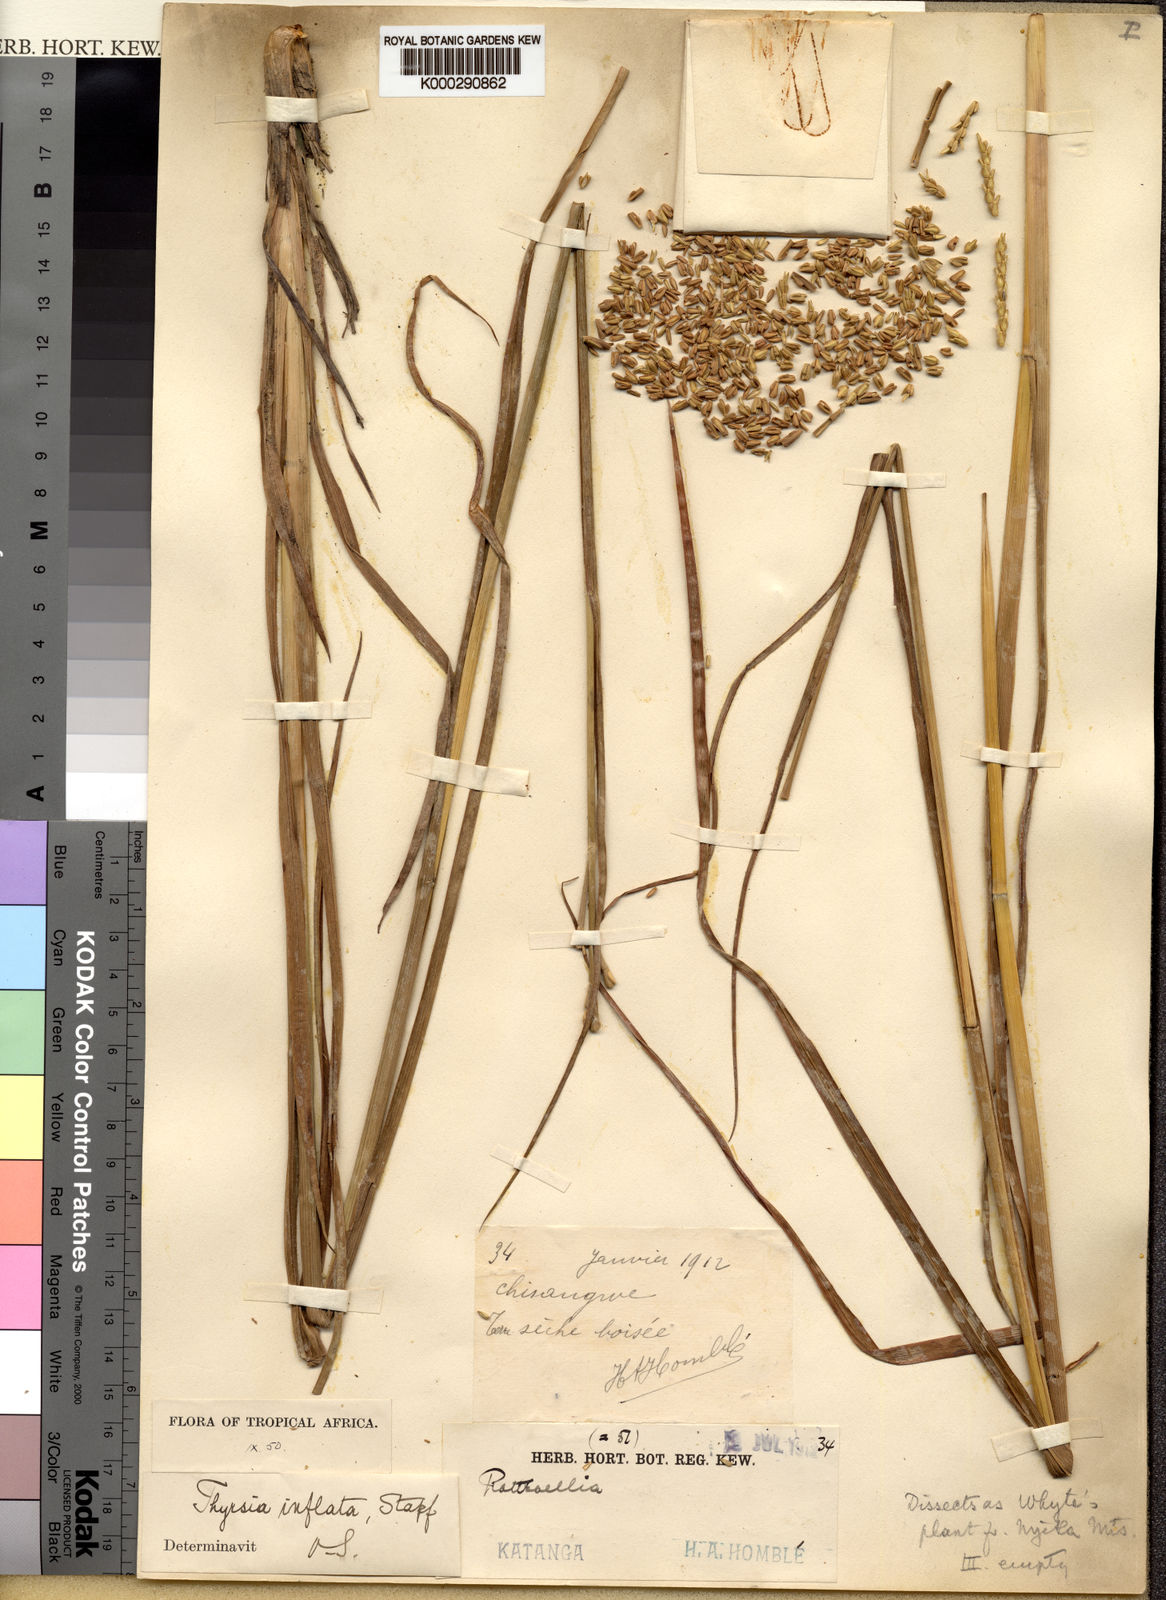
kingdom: Plantae
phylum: Tracheophyta
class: Liliopsida
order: Poales
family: Poaceae
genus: Thyrsia
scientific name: Thyrsia huillensis
